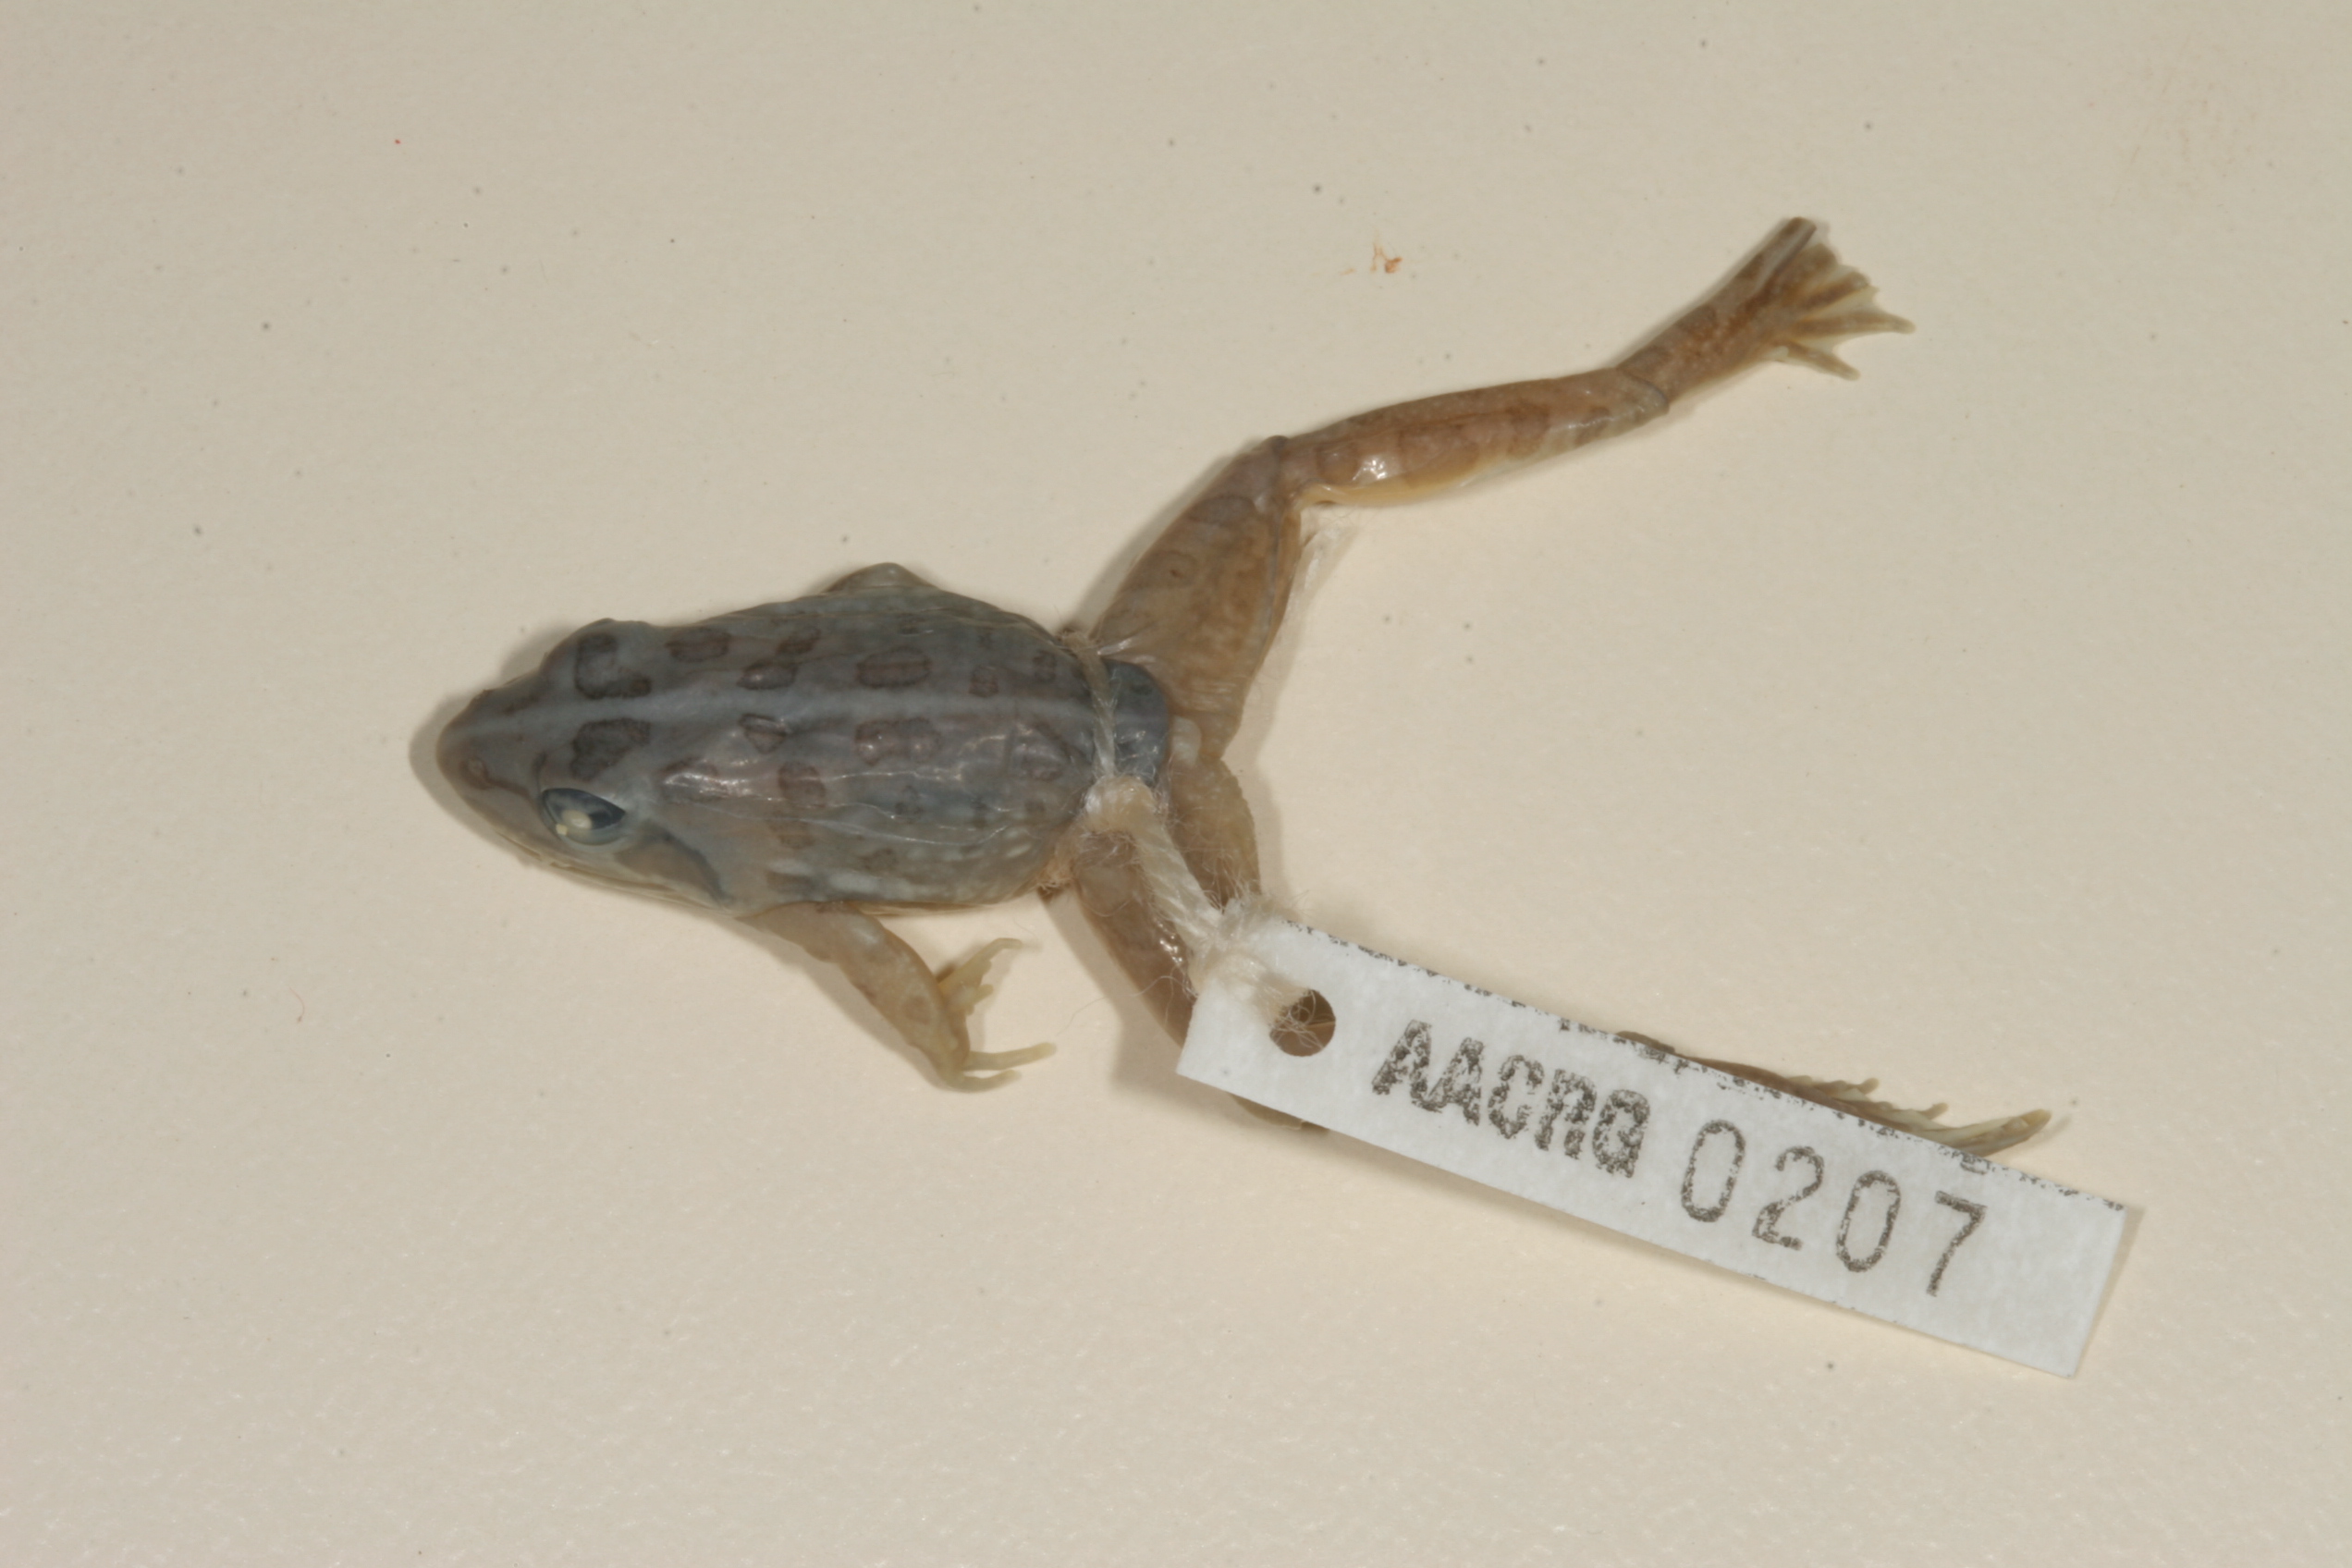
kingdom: Animalia
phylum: Chordata
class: Amphibia
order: Anura
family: Pyxicephalidae
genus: Amietia
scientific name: Amietia angolensis
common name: Dusky-throated frog
